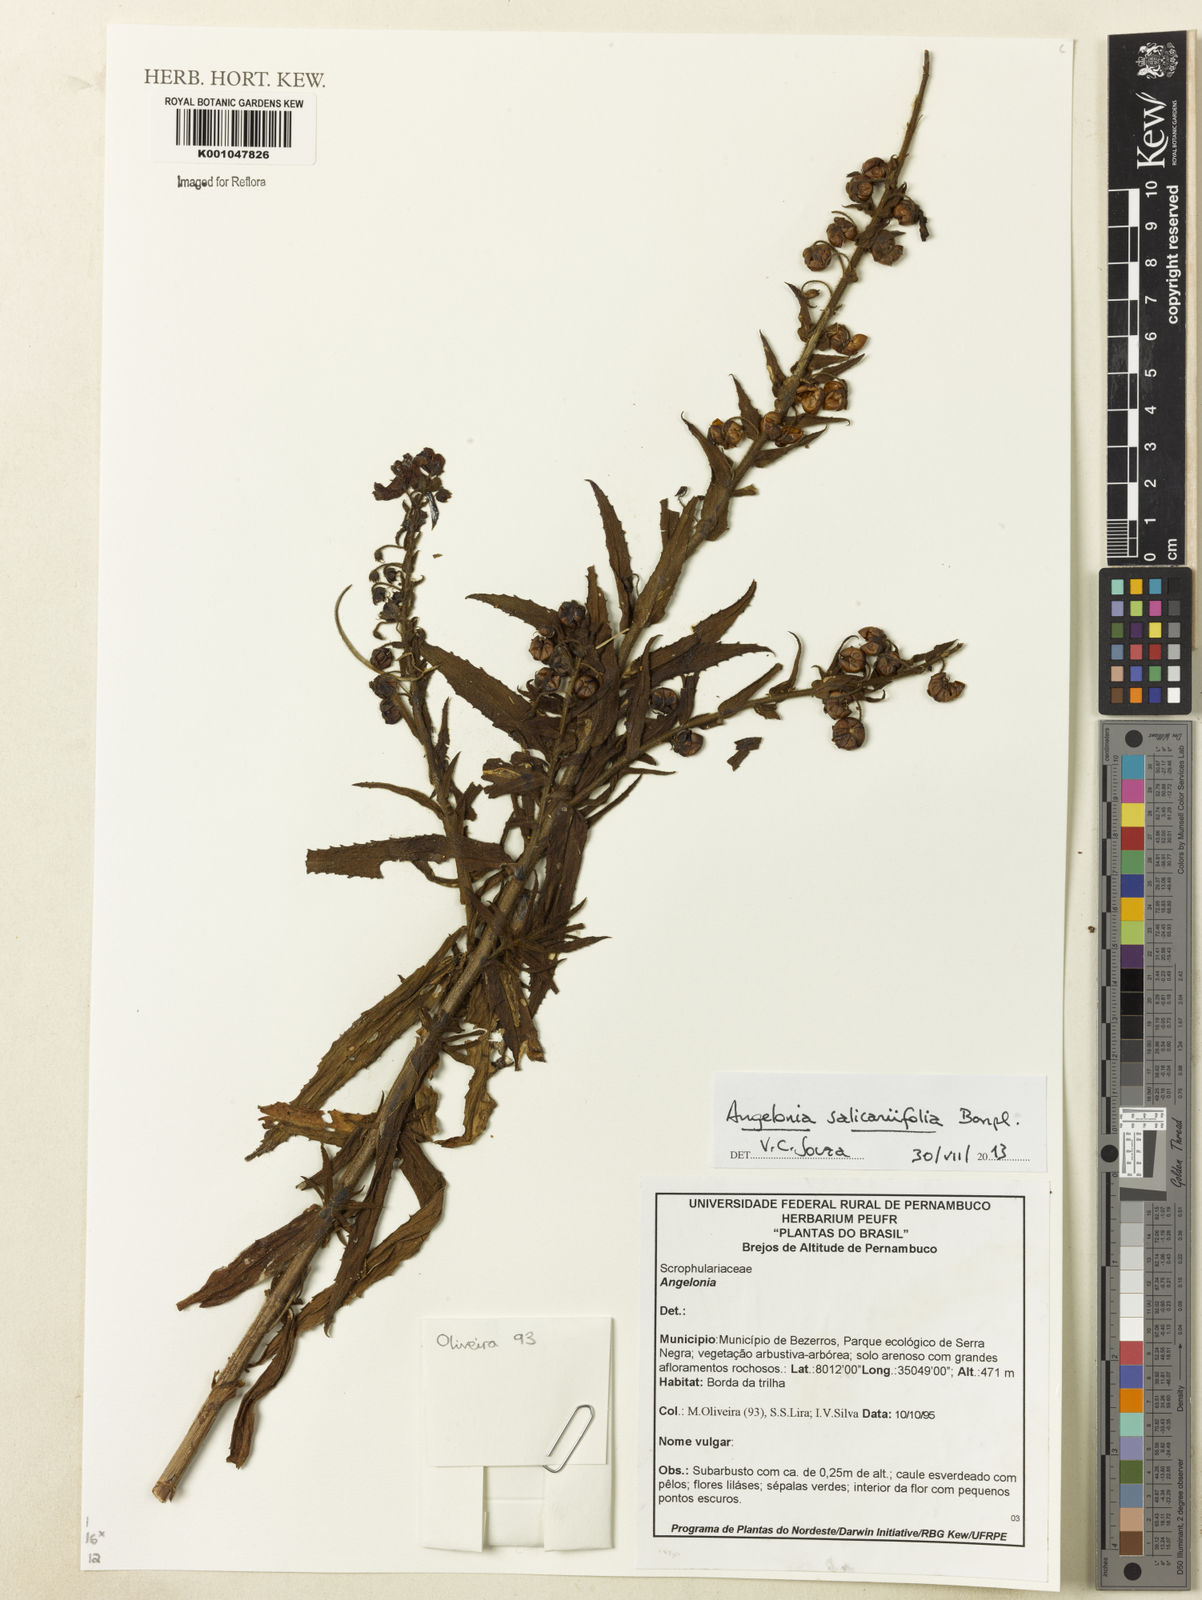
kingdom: Plantae
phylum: Tracheophyta
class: Magnoliopsida
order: Lamiales
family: Plantaginaceae
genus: Angelonia
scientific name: Angelonia salicariifolia
